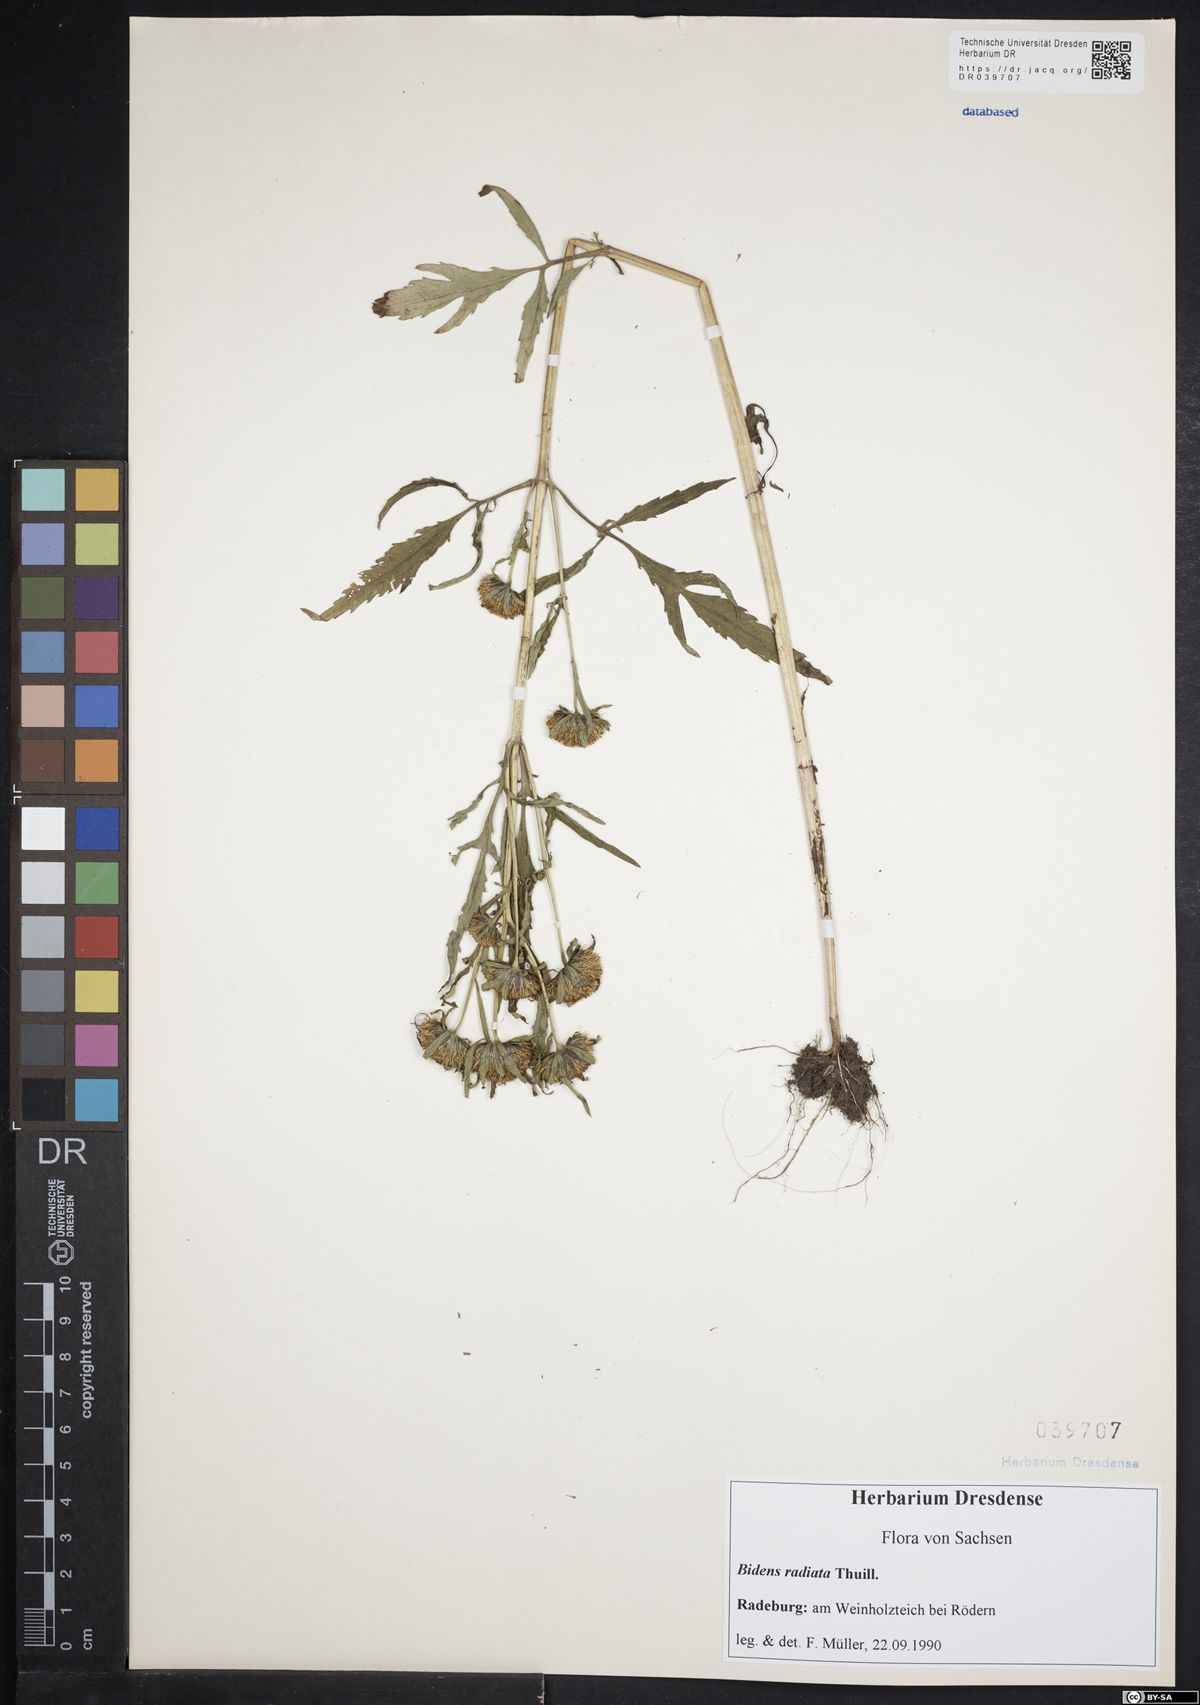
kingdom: Plantae
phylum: Tracheophyta
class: Magnoliopsida
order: Asterales
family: Asteraceae
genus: Bidens
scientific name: Bidens radiata
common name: Radiating bur-marigold
